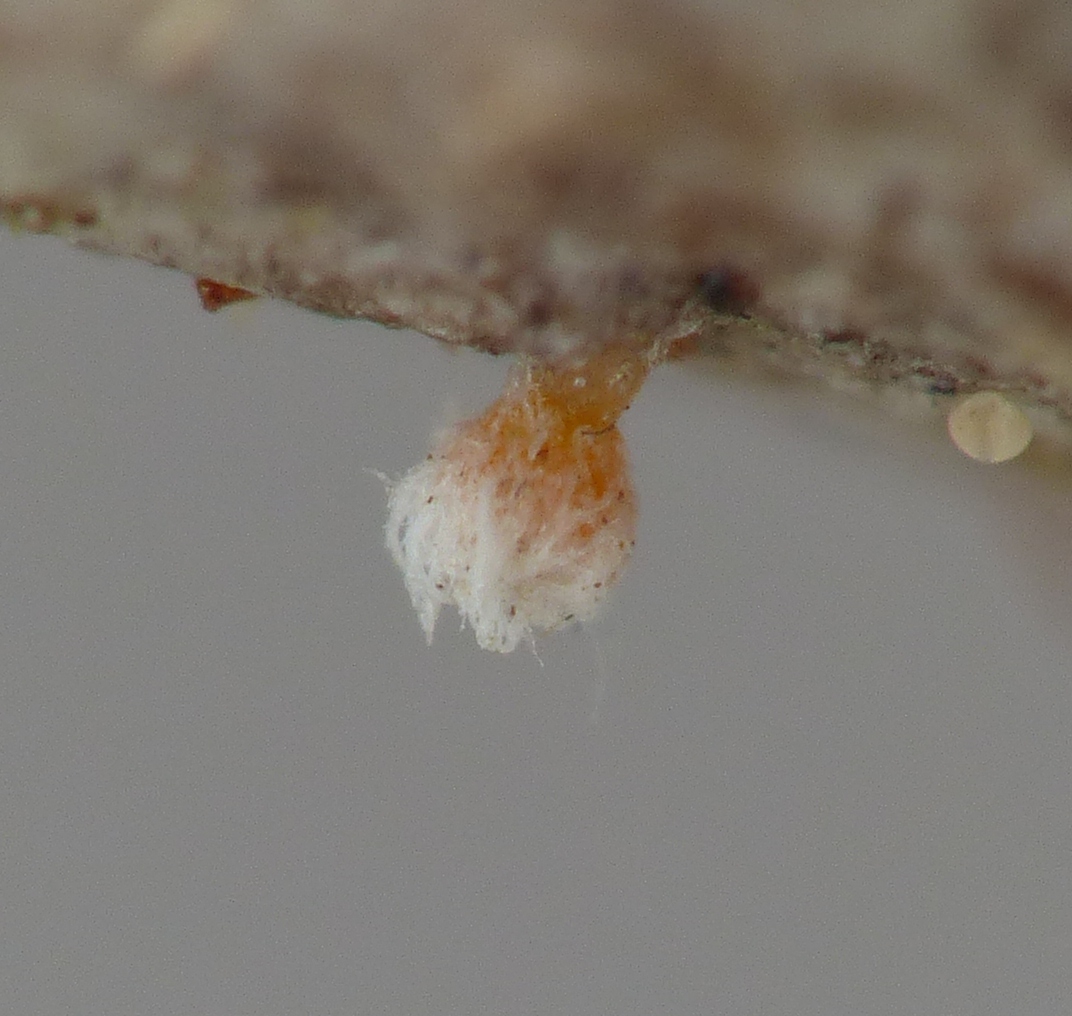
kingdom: Fungi
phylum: Ascomycota
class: Leotiomycetes
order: Helotiales
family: Hyaloscyphaceae
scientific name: Hyaloscyphaceae
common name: frynseskivefamilien
